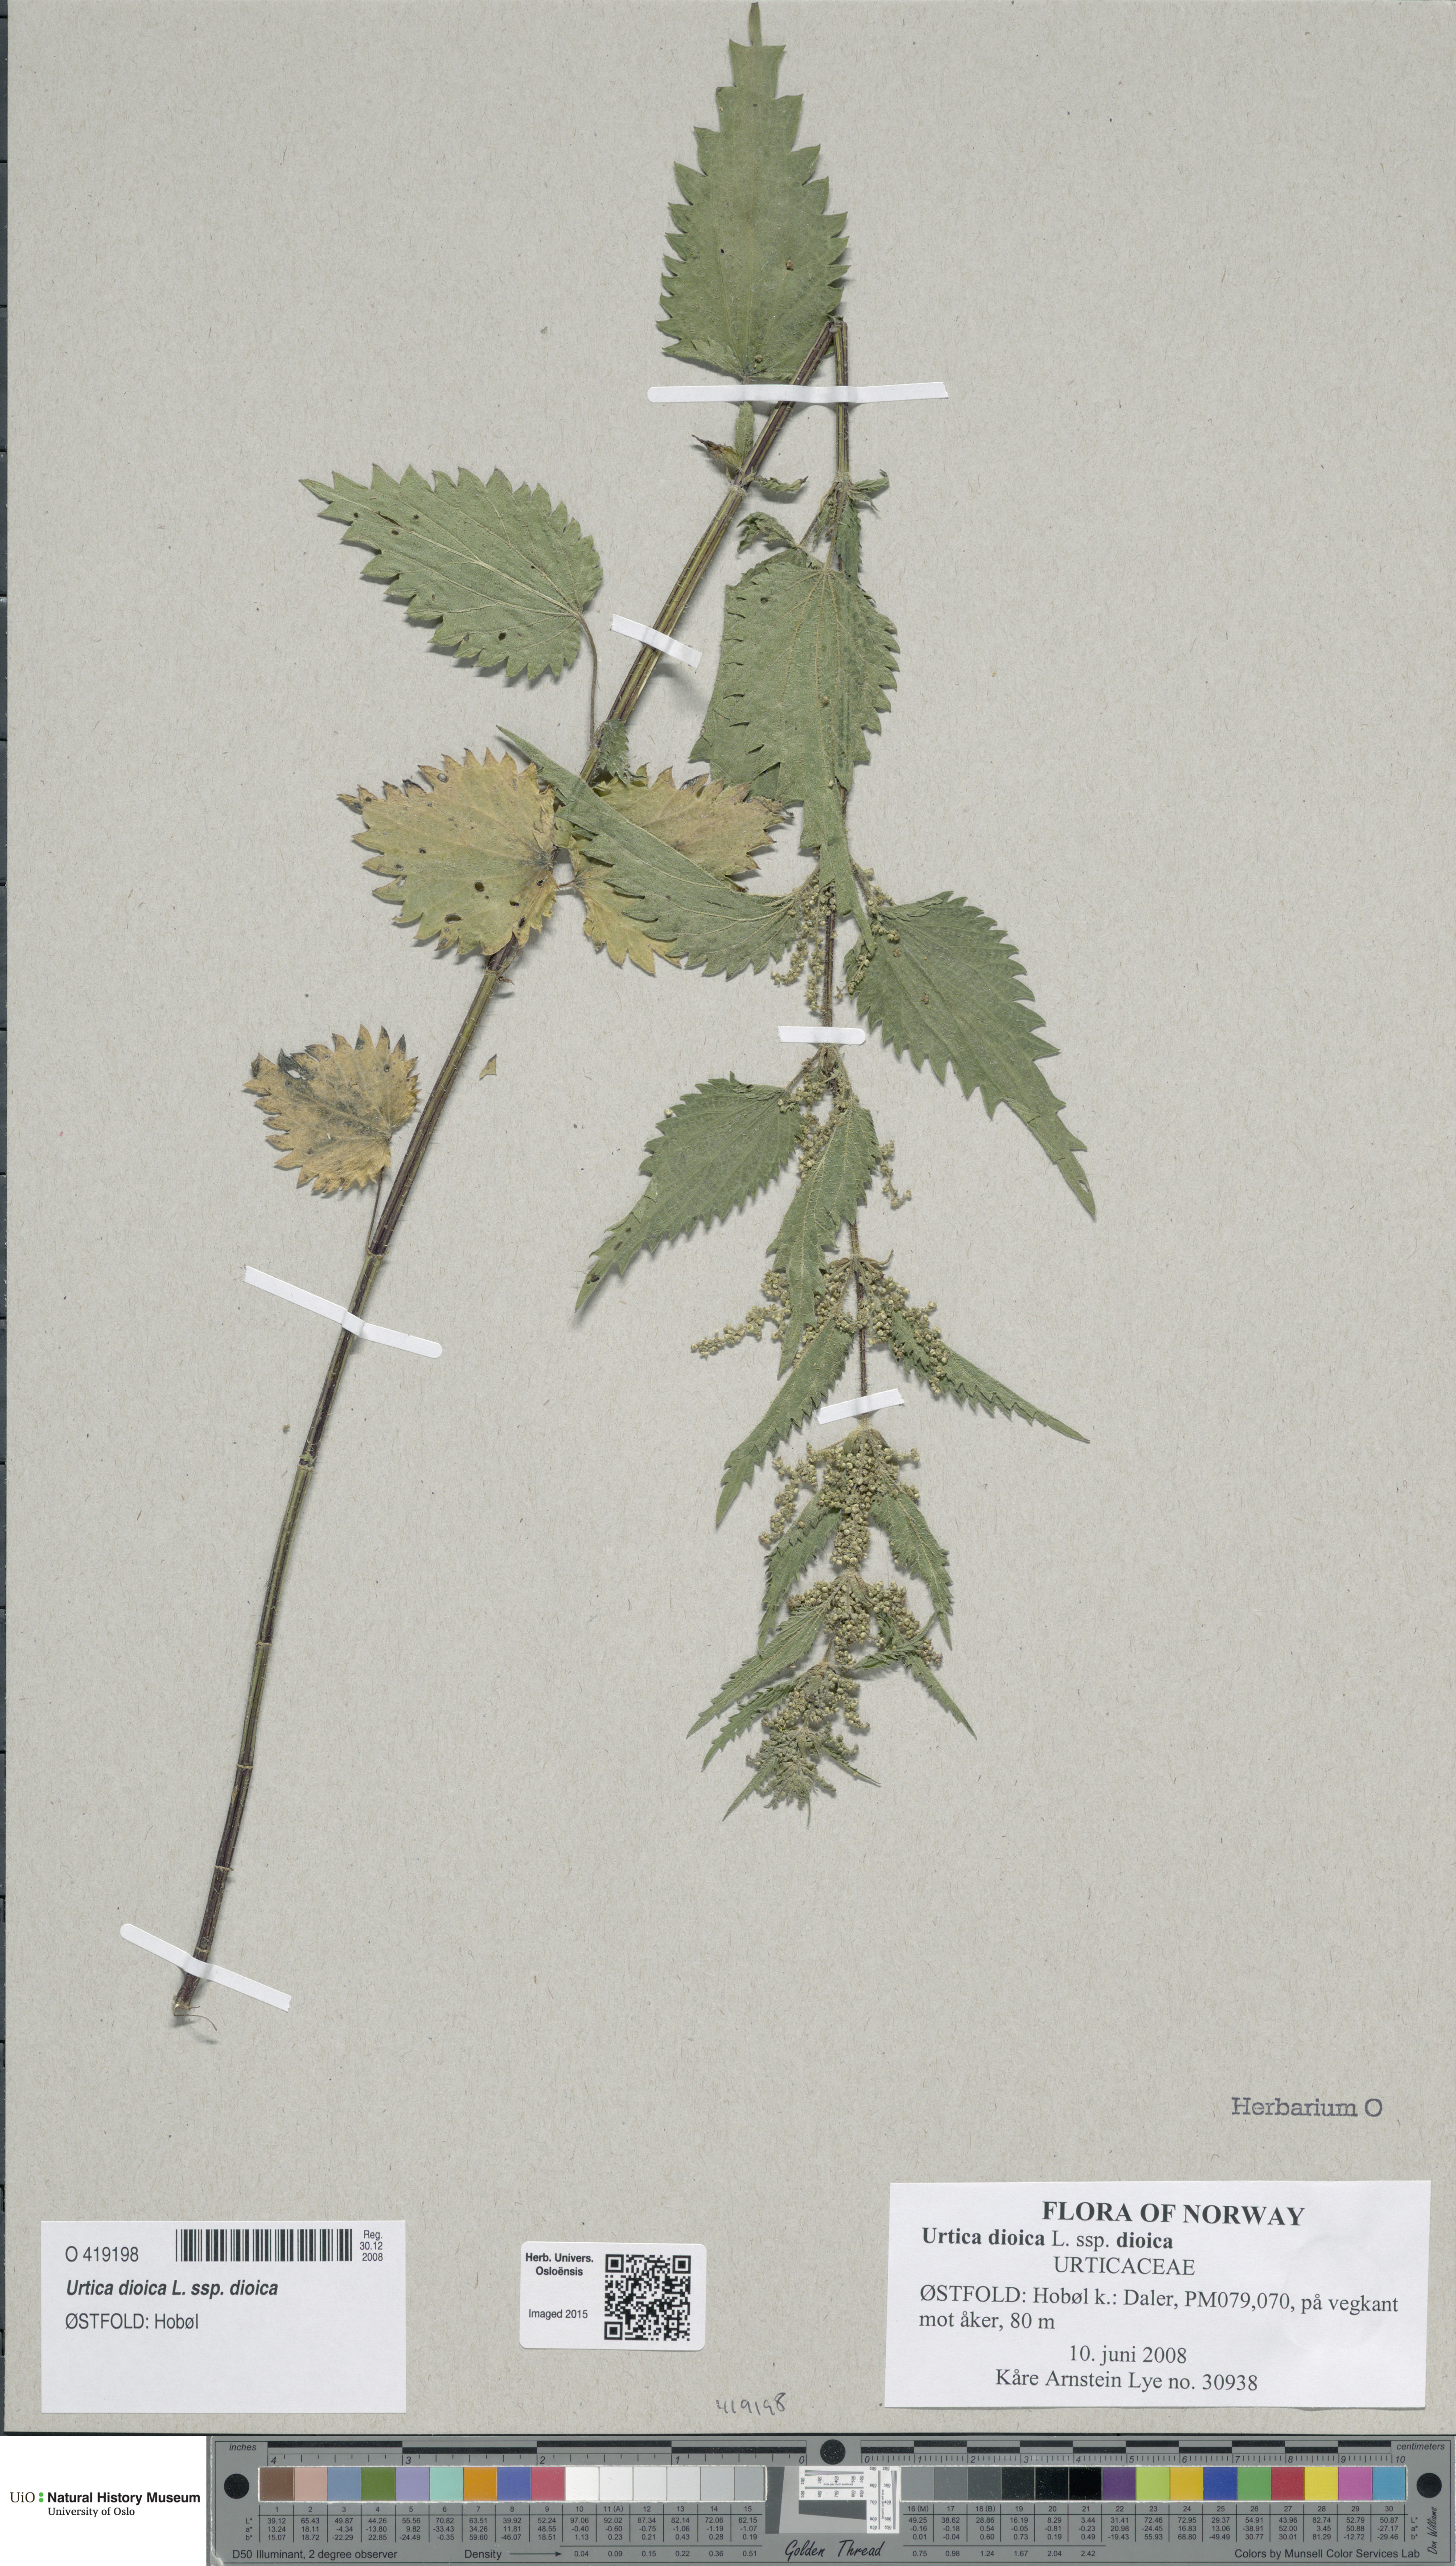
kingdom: Plantae
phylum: Tracheophyta
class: Magnoliopsida
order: Rosales
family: Urticaceae
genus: Urtica
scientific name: Urtica dioica
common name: Common nettle
